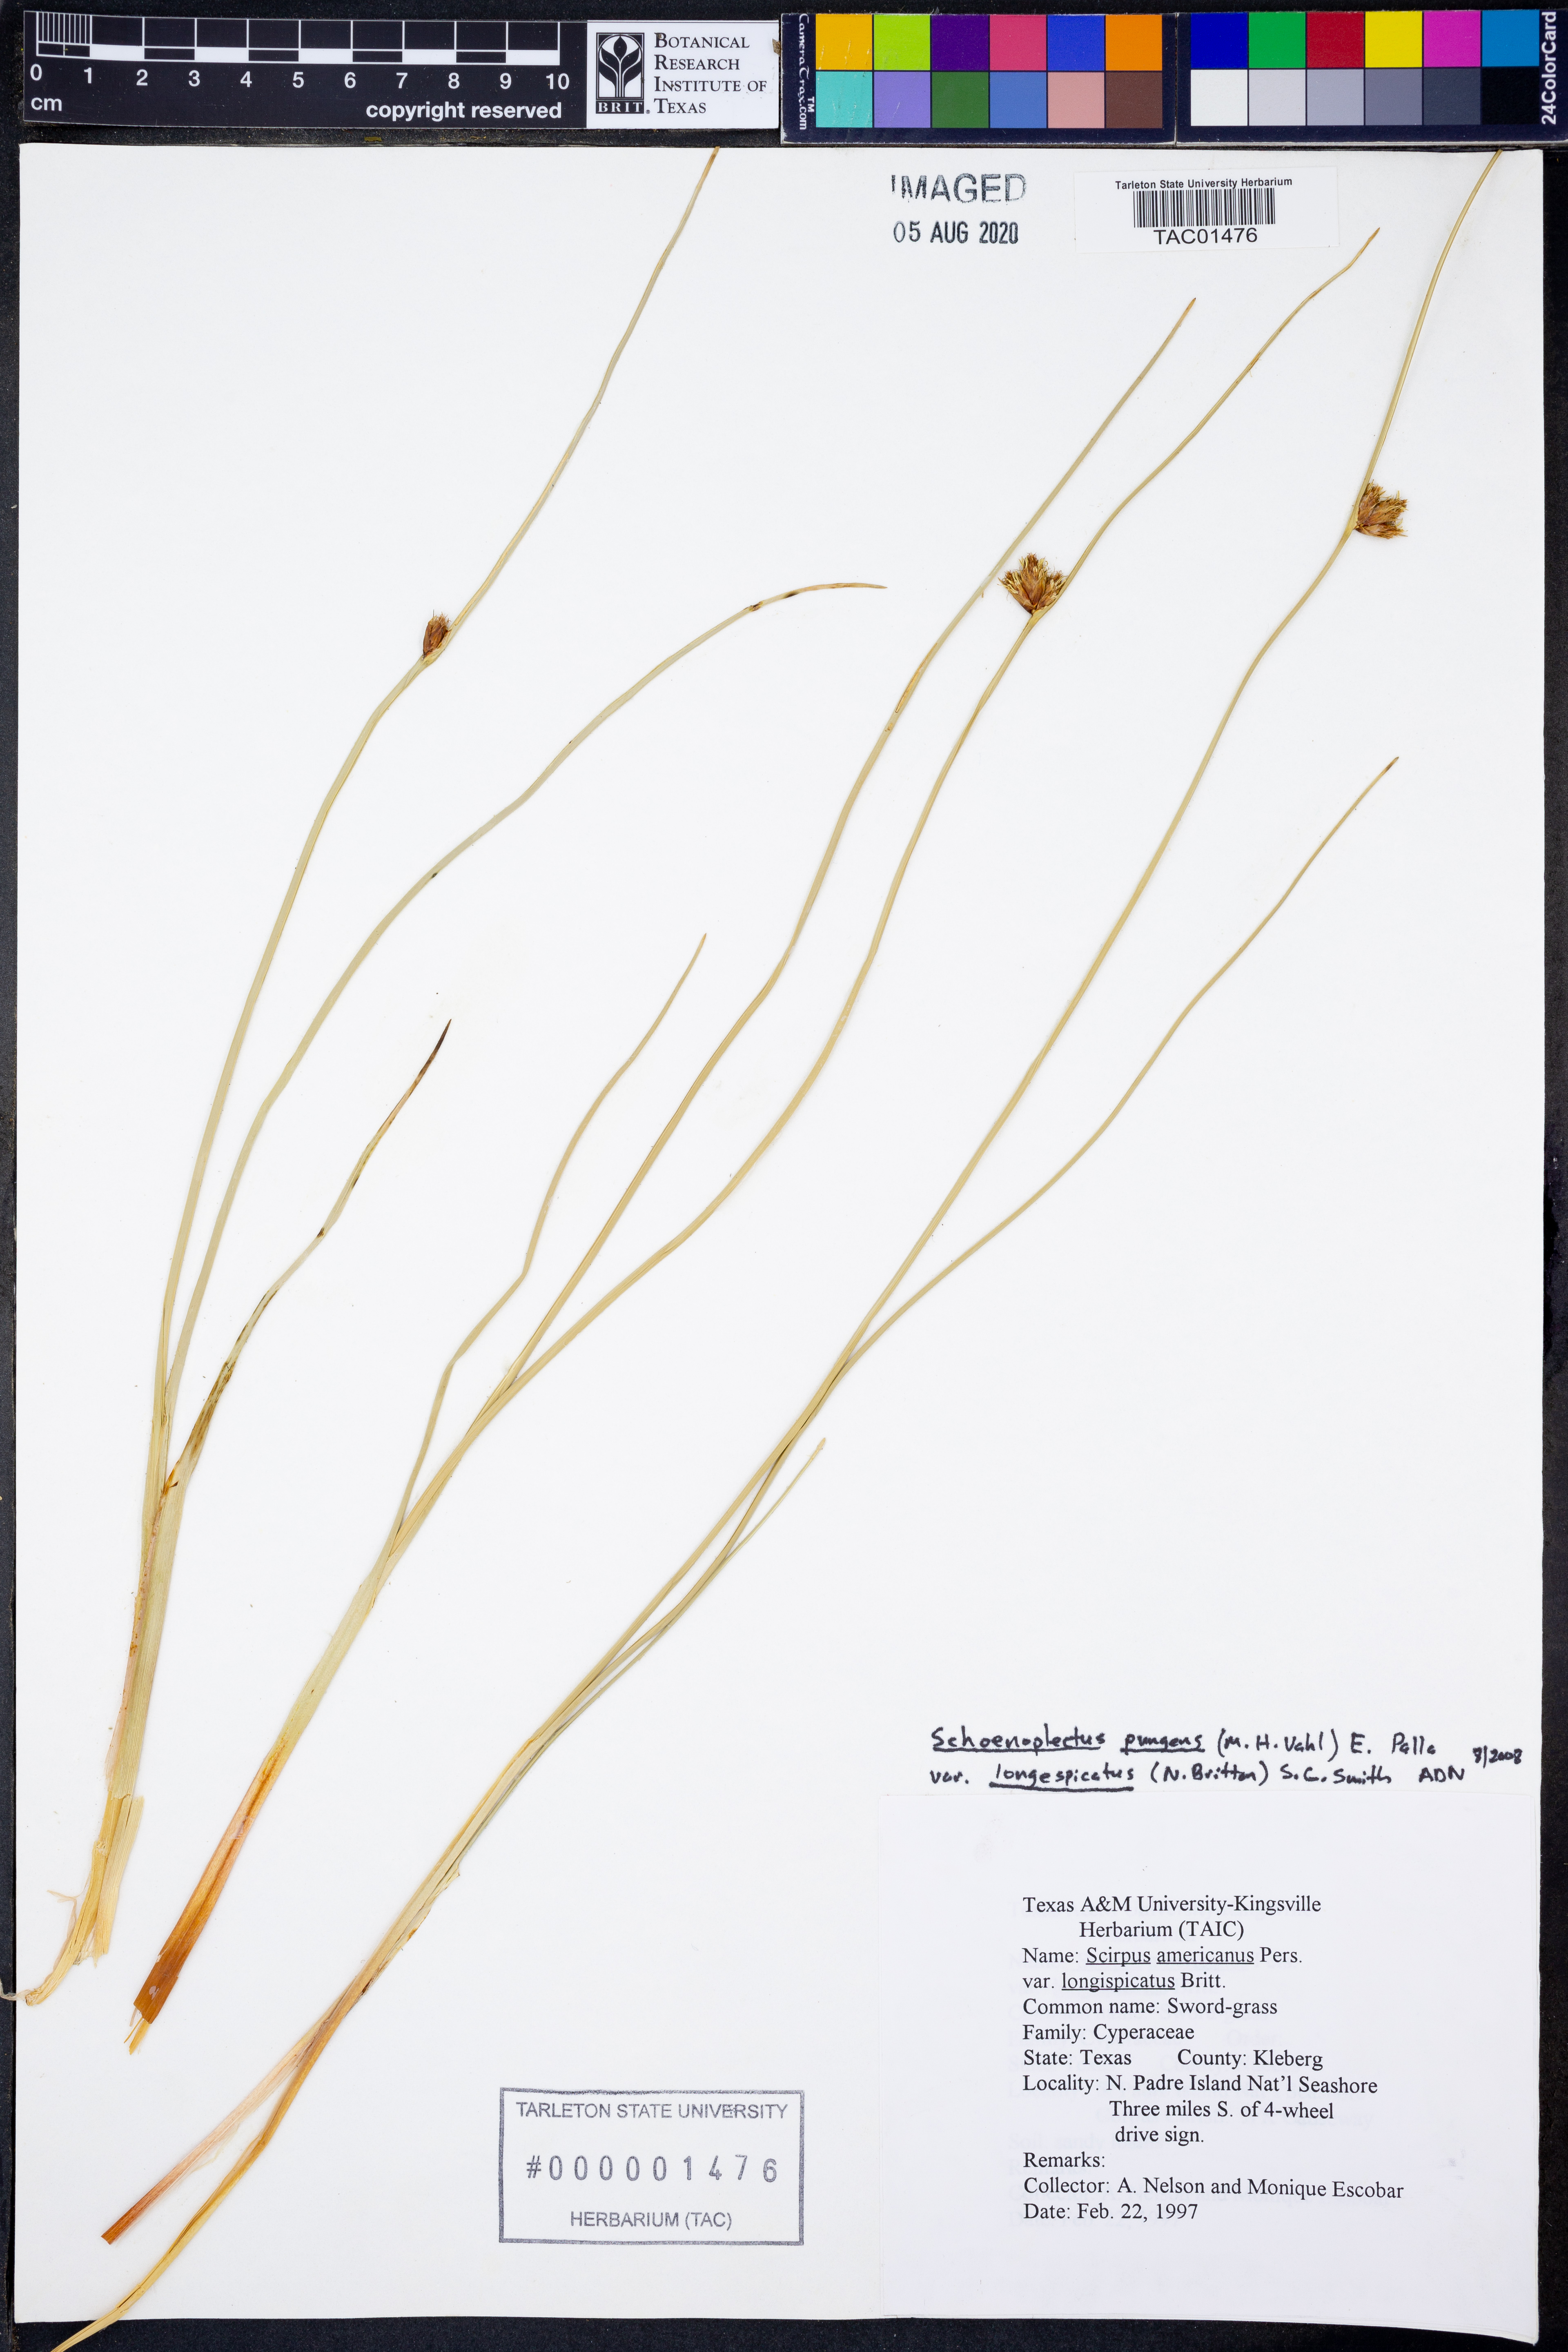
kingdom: Plantae
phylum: Tracheophyta
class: Liliopsida
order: Poales
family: Cyperaceae
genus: Schoenoplectus
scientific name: Schoenoplectus pungens
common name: Sharp club-rush
